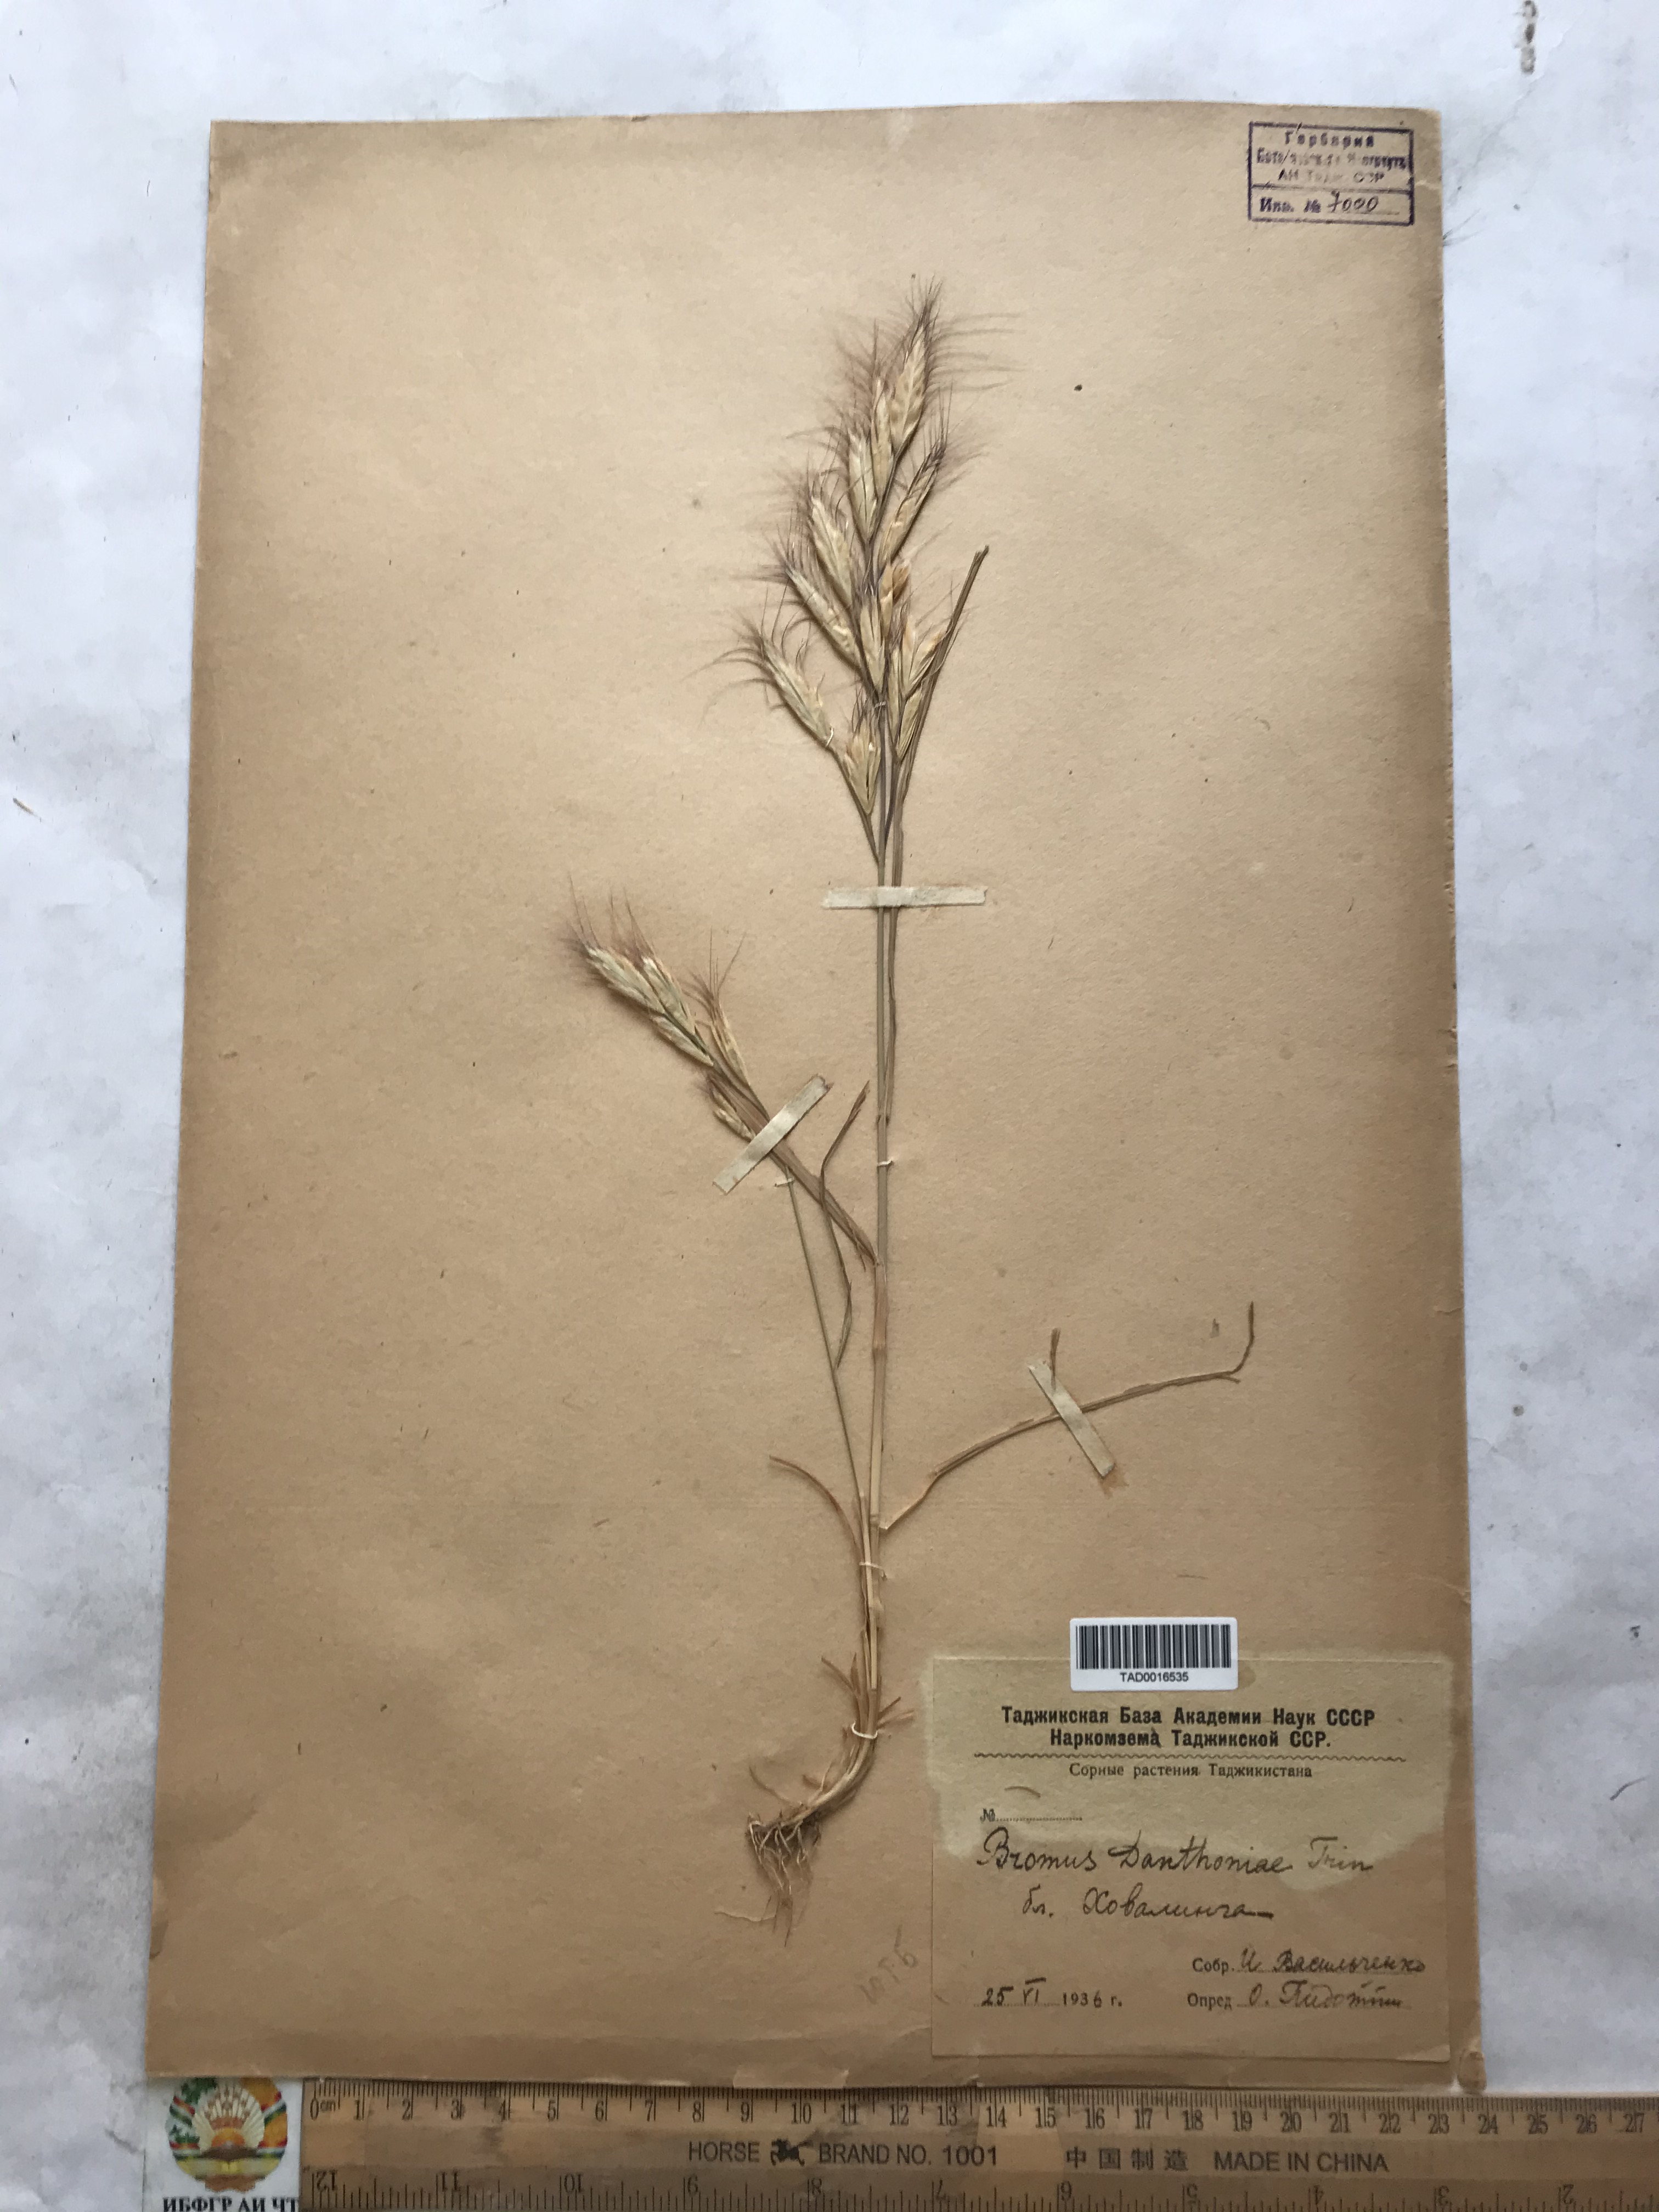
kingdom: Plantae
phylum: Tracheophyta
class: Liliopsida
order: Poales
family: Poaceae
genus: Bromus
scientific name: Bromus danthoniae
